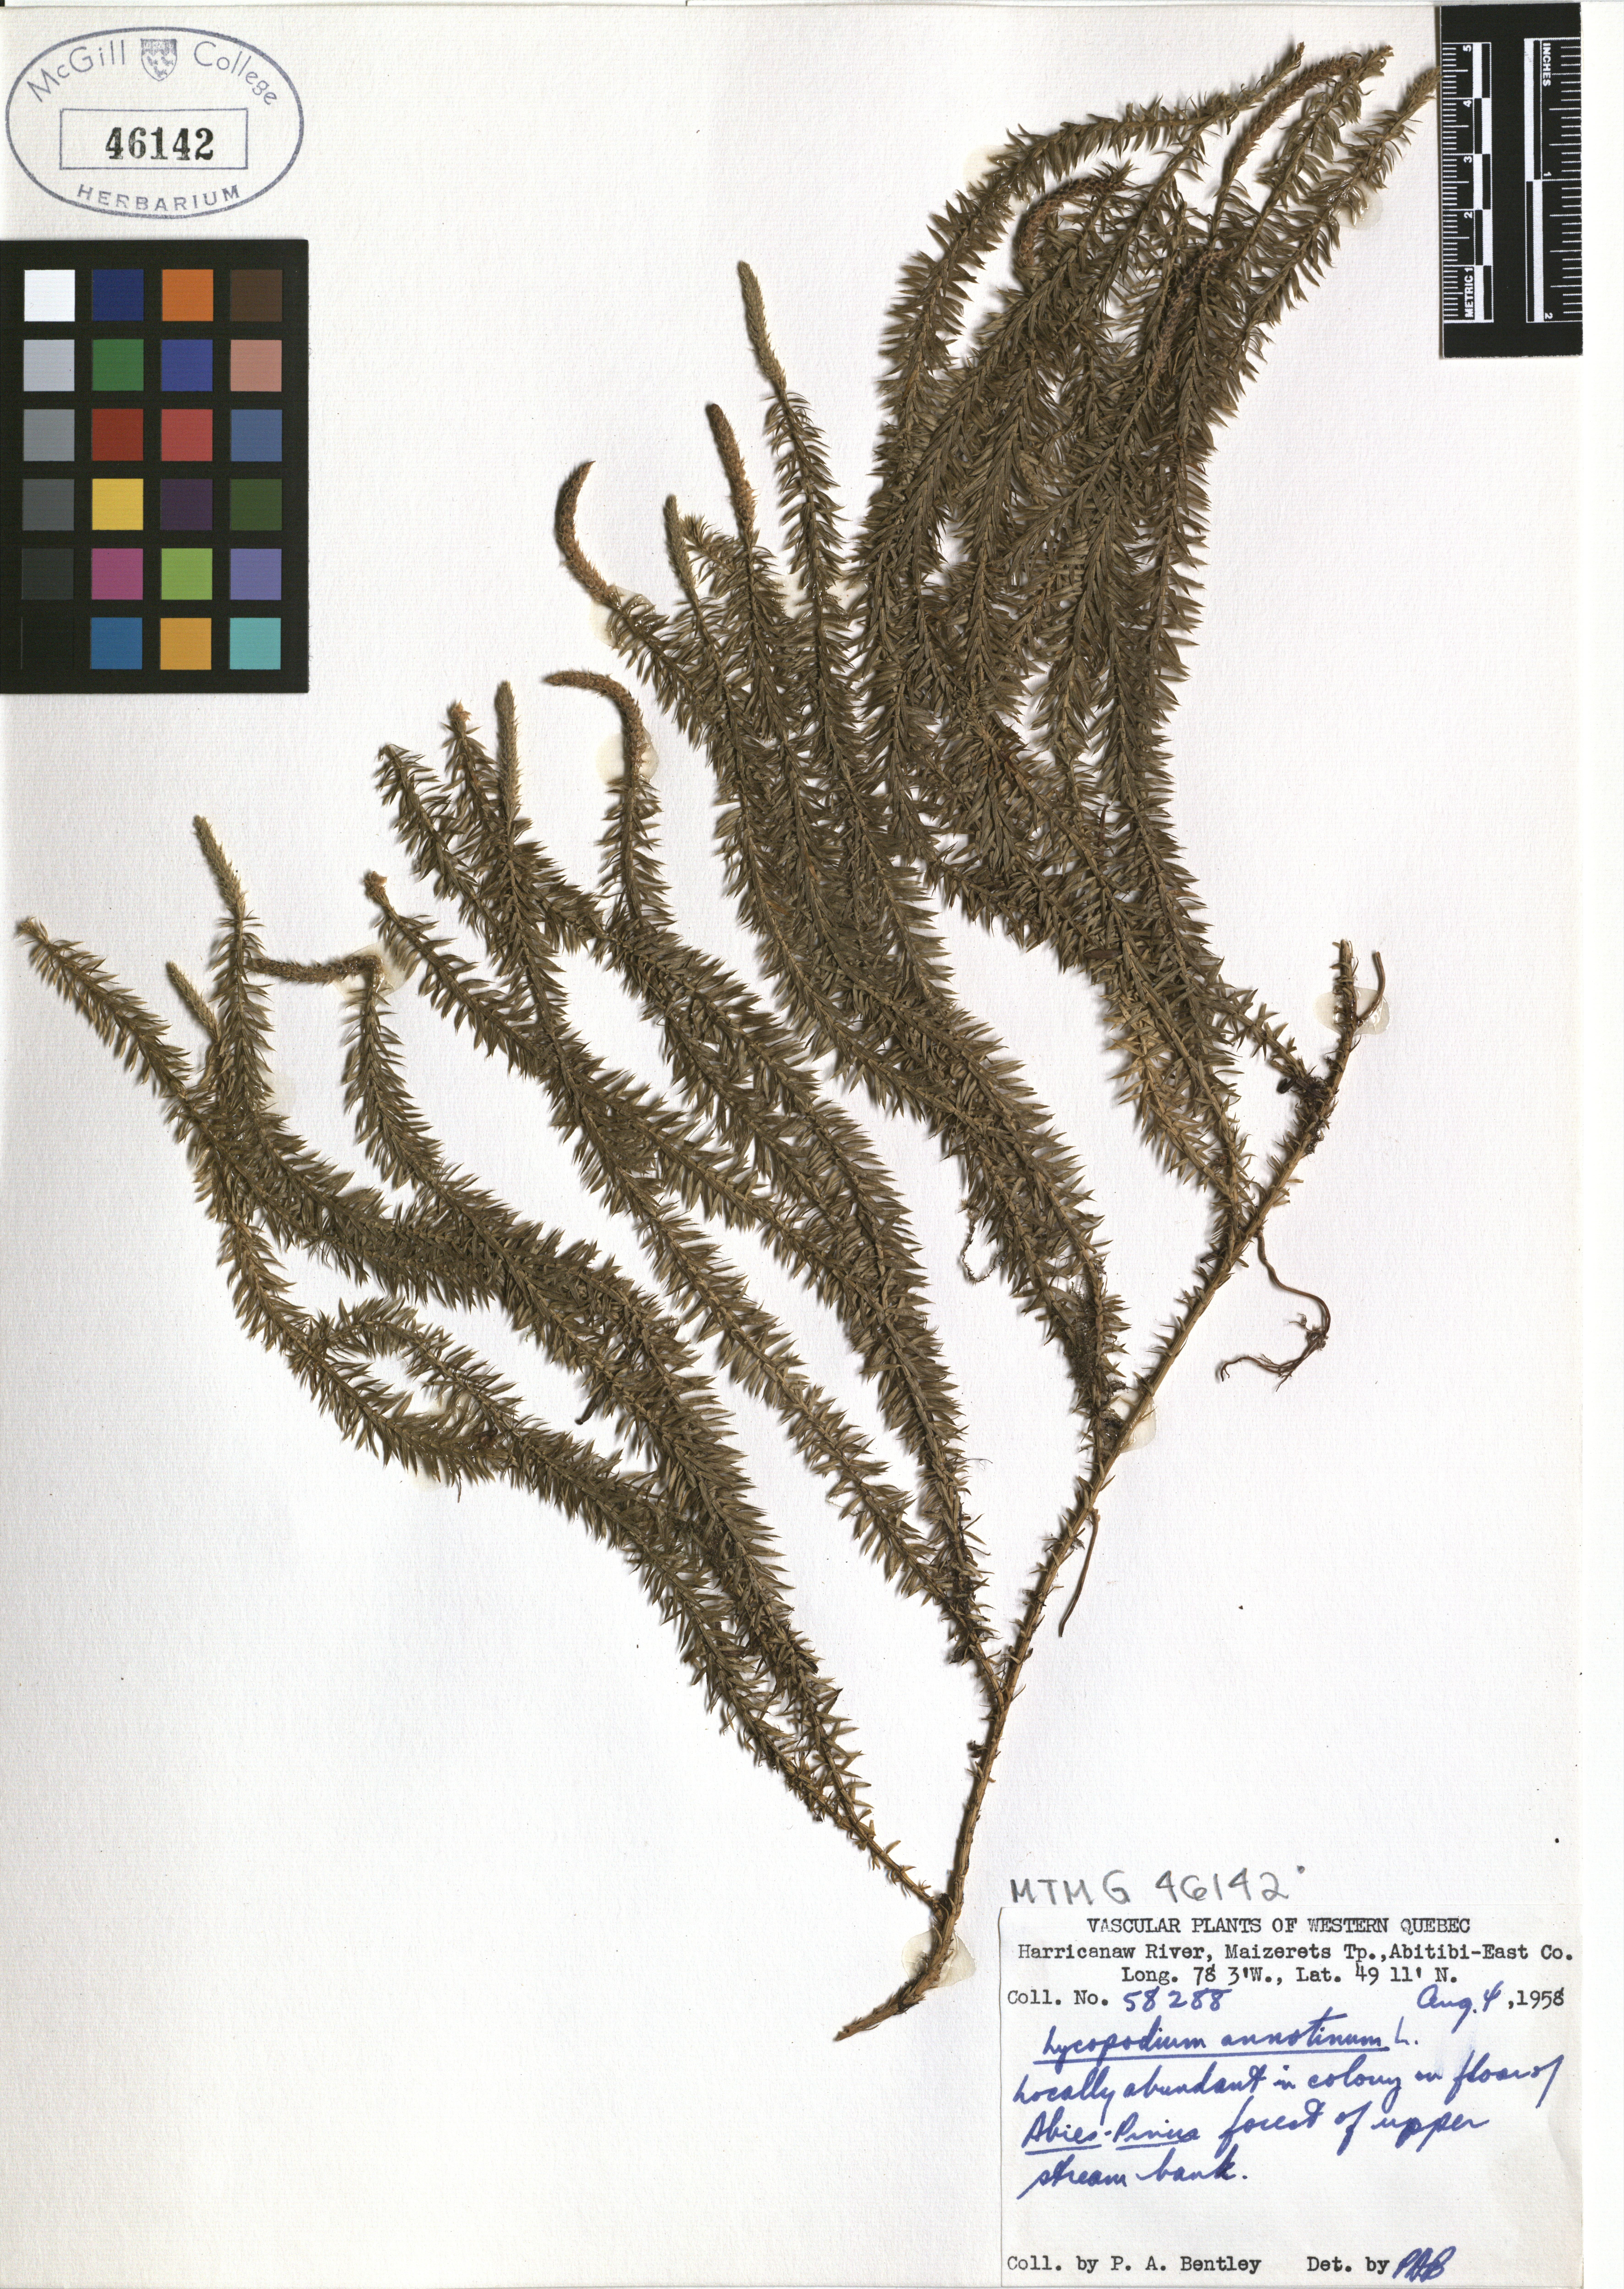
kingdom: Plantae
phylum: Tracheophyta
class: Lycopodiopsida
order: Lycopodiales
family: Lycopodiaceae
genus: Spinulum
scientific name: Spinulum annotinum
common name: Interrupted club-moss
